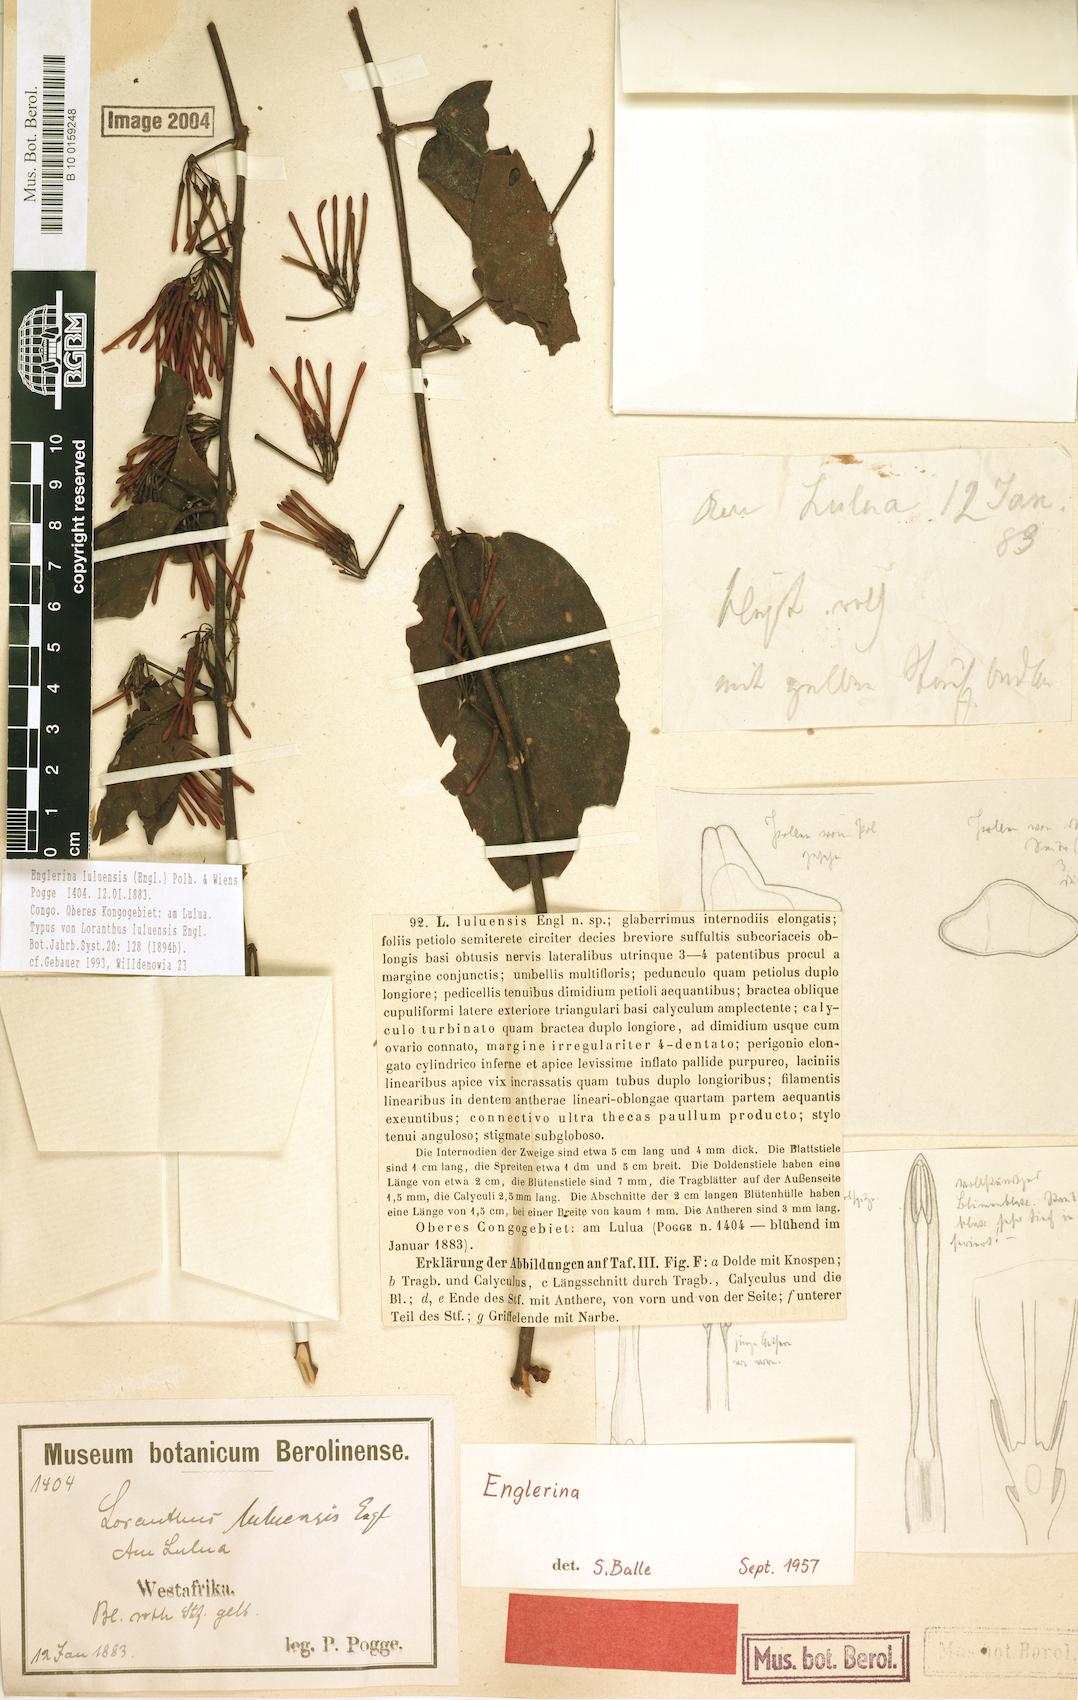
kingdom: Plantae
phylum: Tracheophyta
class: Magnoliopsida
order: Santalales
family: Loranthaceae
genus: Englerina
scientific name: Englerina luluensis
